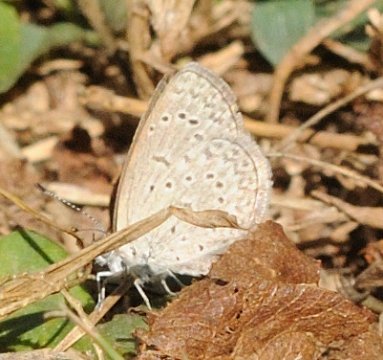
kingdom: Animalia
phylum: Arthropoda
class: Insecta
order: Lepidoptera
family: Lycaenidae
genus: Zizeeria
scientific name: Zizeeria knysna
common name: Dark Grass Blue
